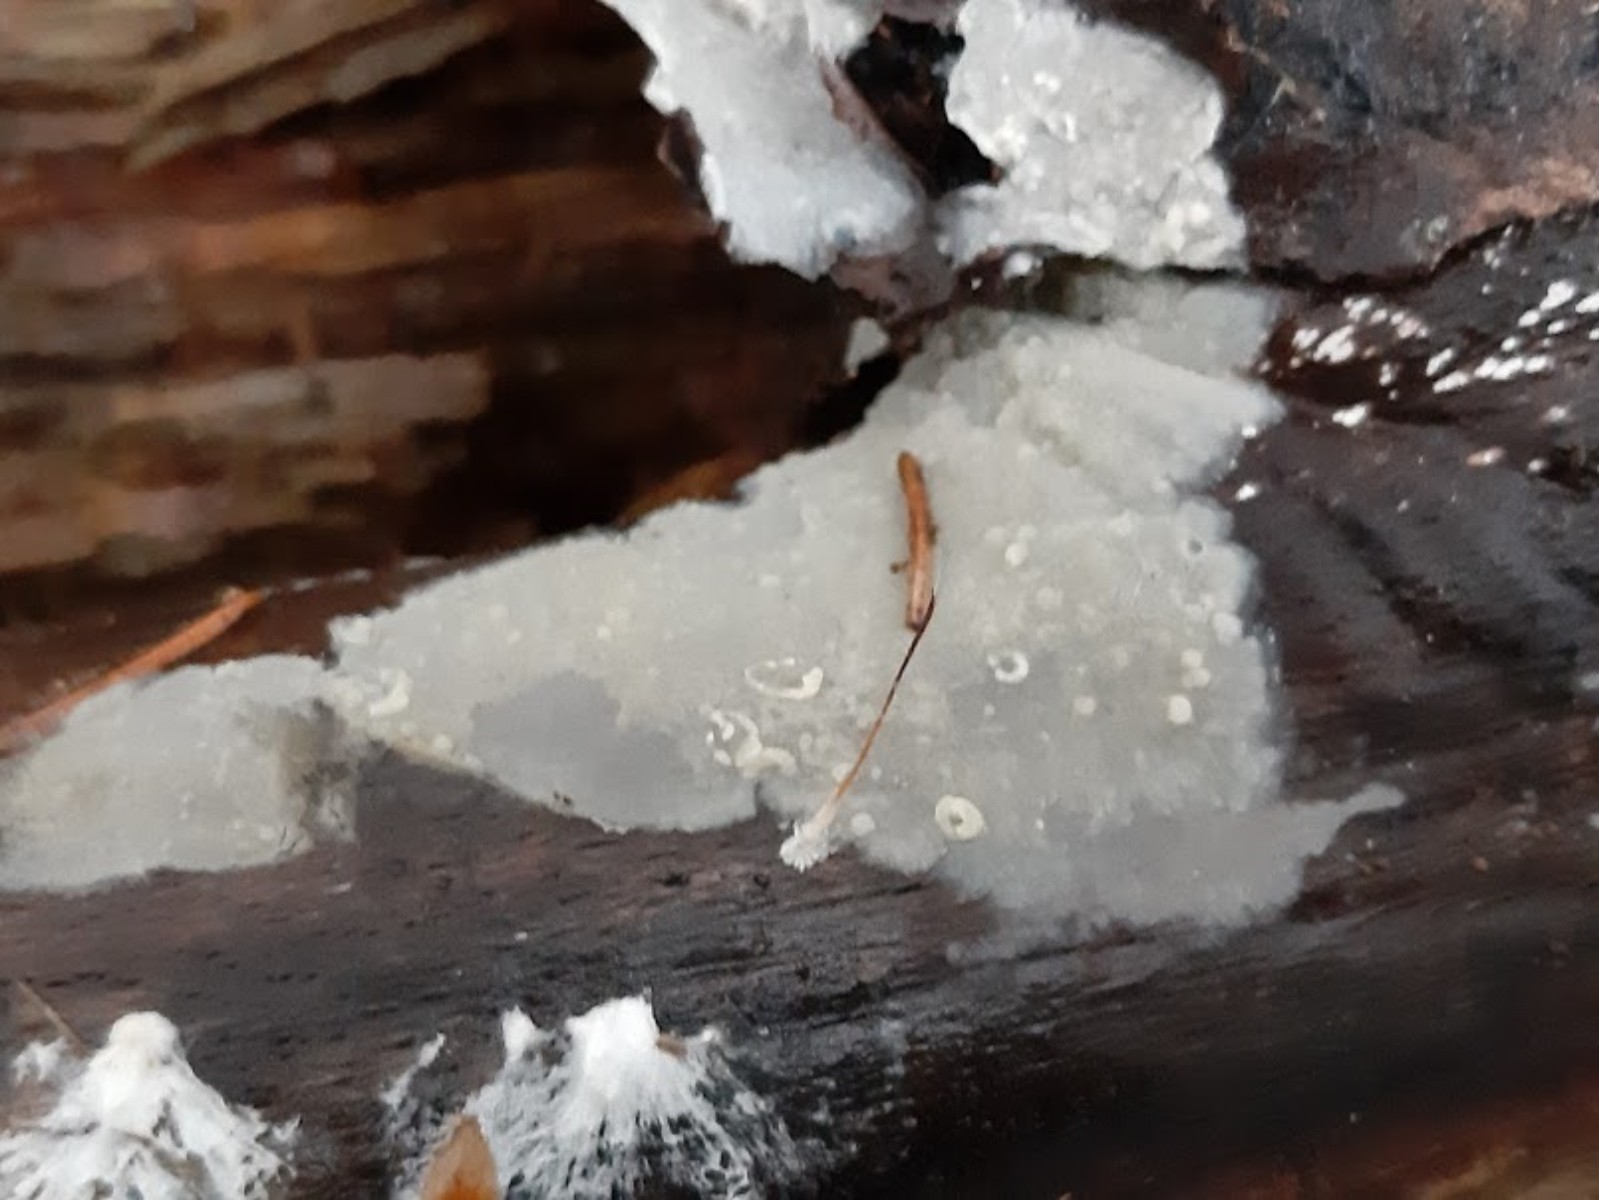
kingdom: Fungi
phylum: Basidiomycota
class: Agaricomycetes
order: Corticiales
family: Corticiaceae
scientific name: Corticiaceae
